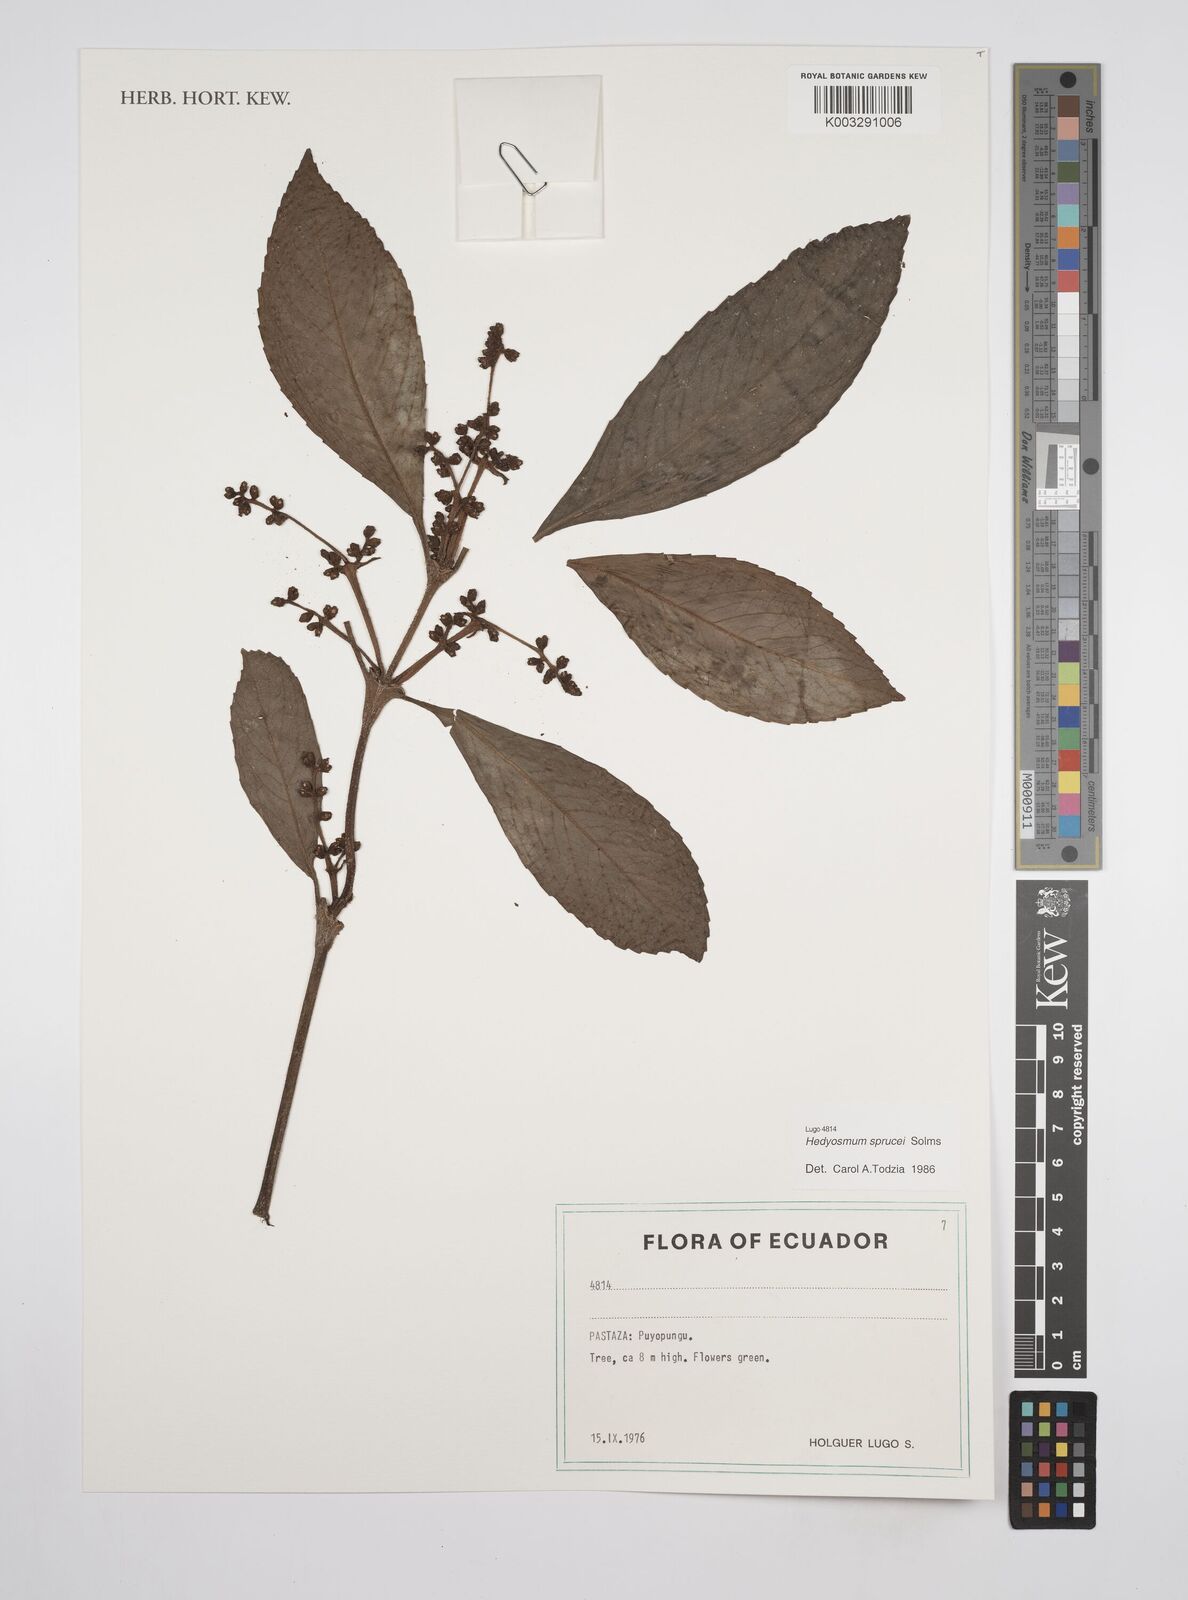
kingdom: Plantae
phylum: Tracheophyta
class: Magnoliopsida
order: Chloranthales
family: Chloranthaceae
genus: Hedyosmum
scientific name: Hedyosmum sprucei
